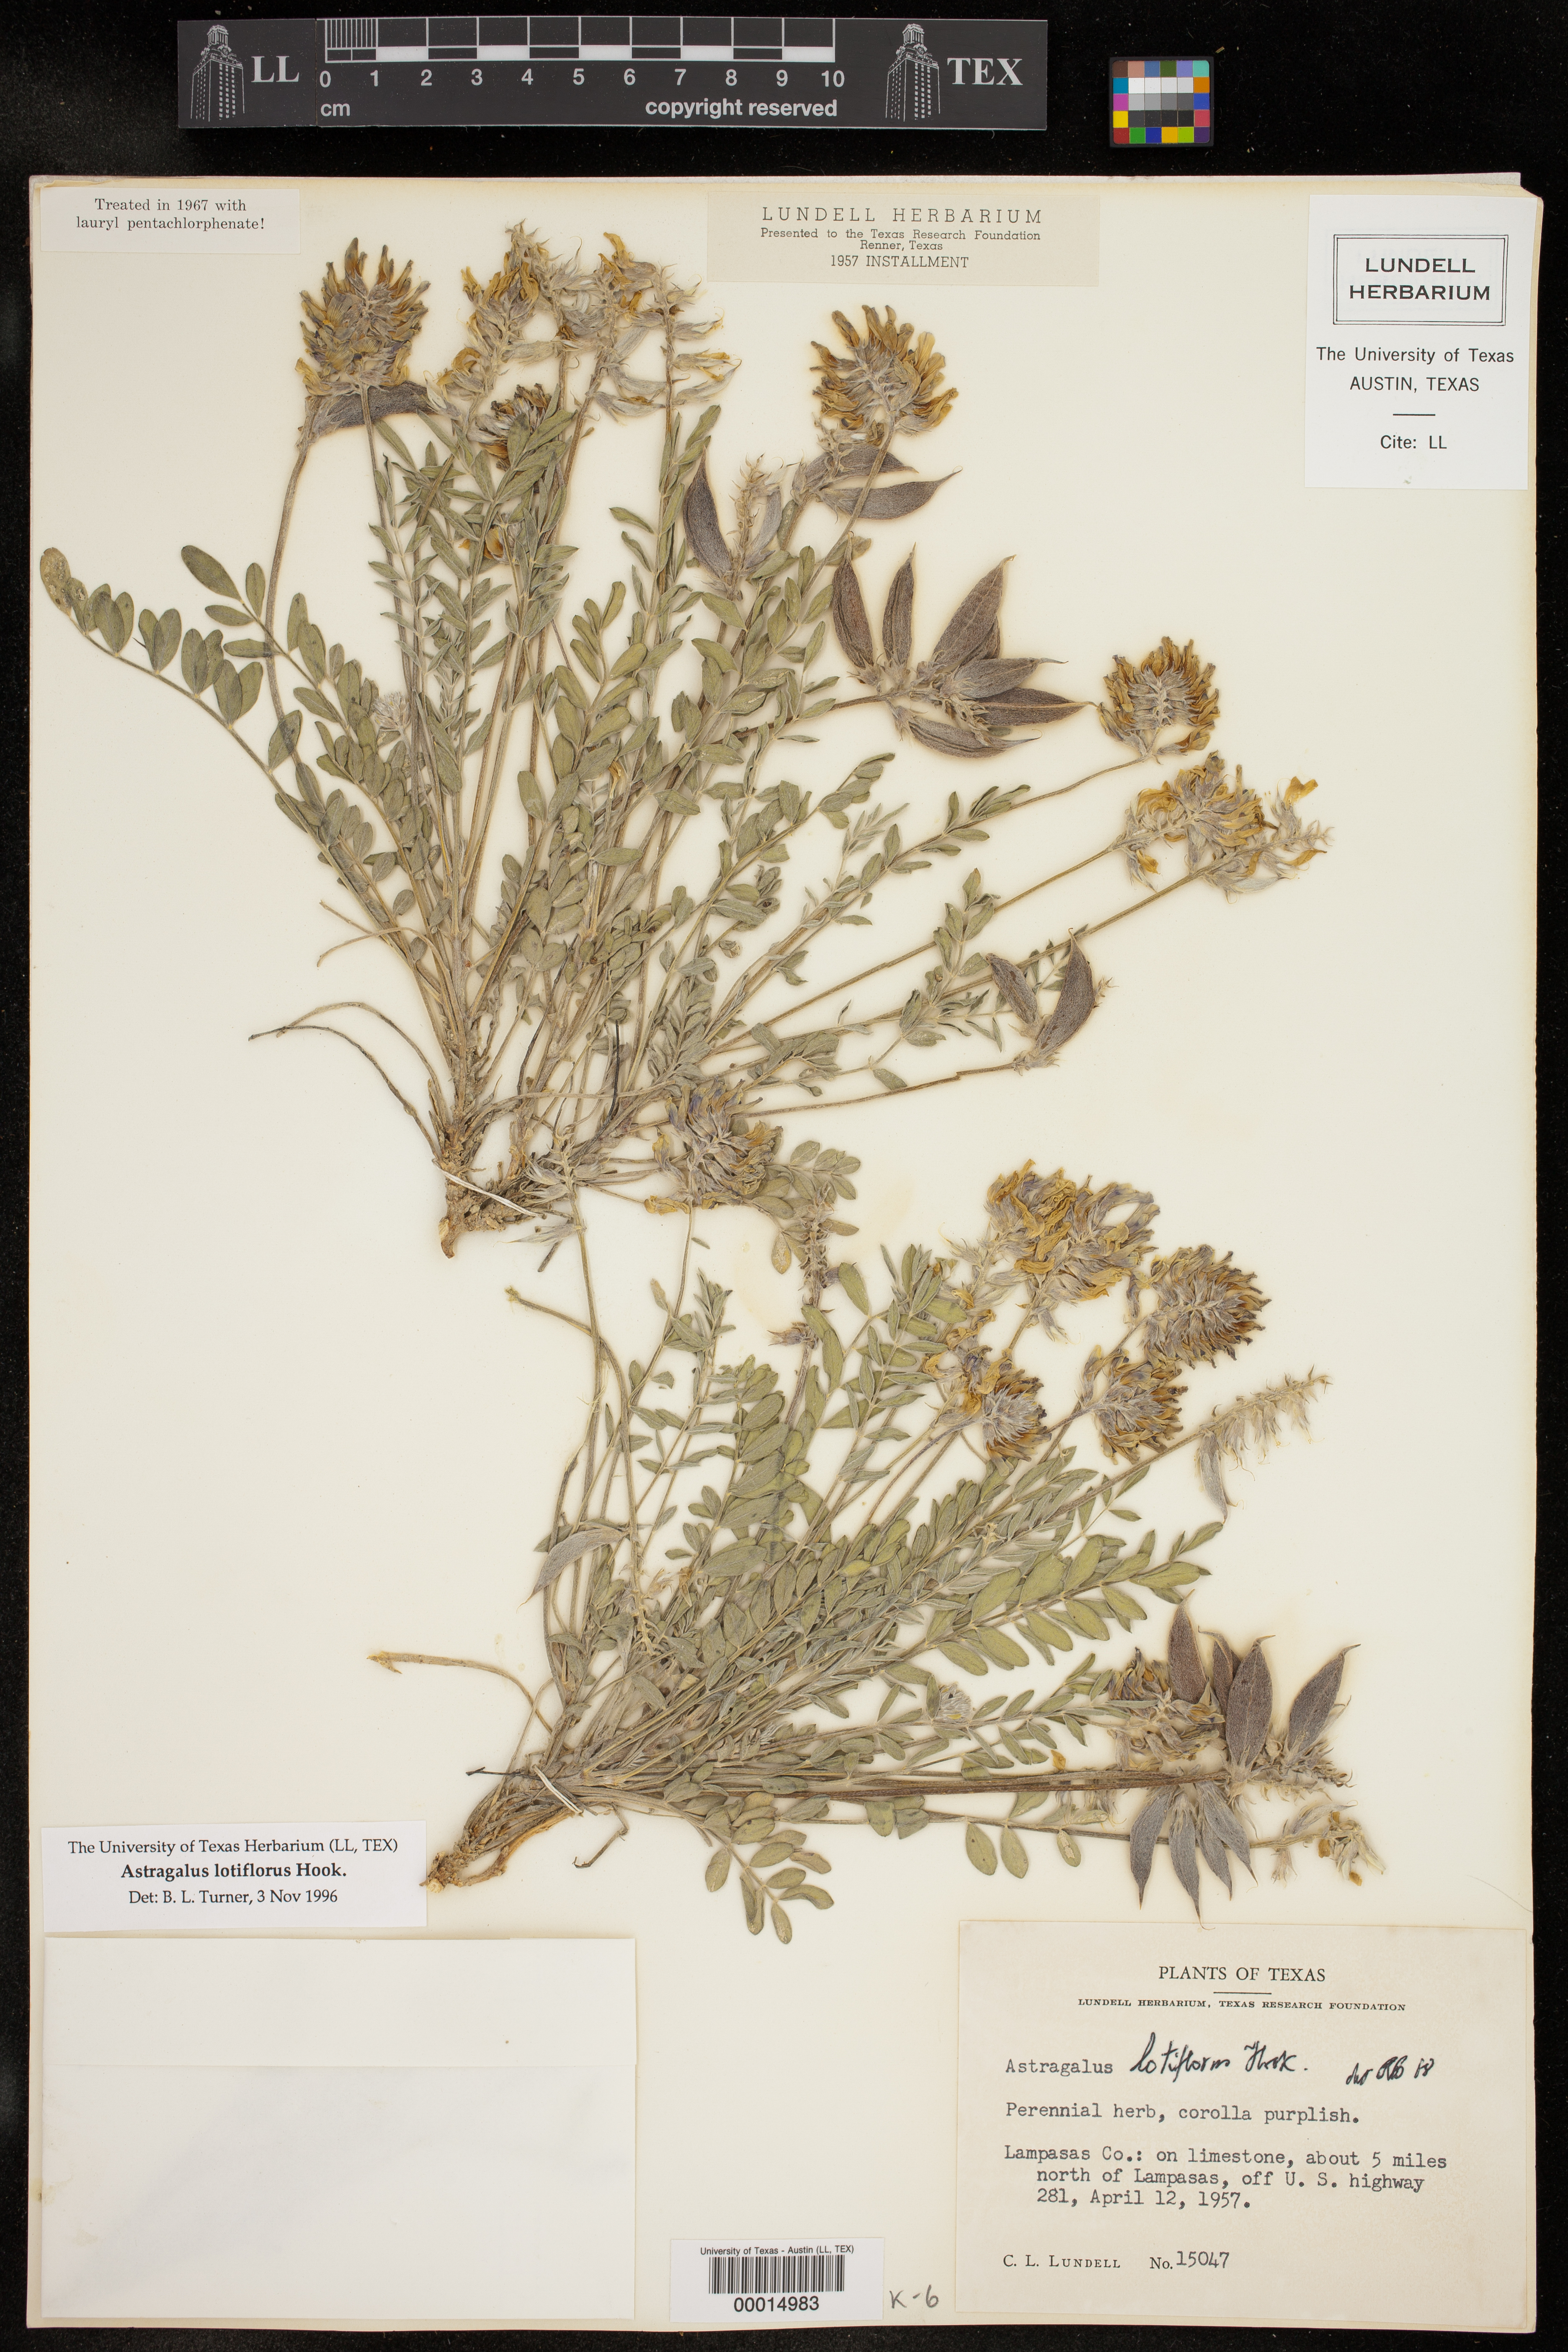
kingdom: Plantae
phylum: Tracheophyta
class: Magnoliopsida
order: Fabales
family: Fabaceae
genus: Astragalus
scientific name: Astragalus lotiflorus
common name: Lotus milk-vetch
